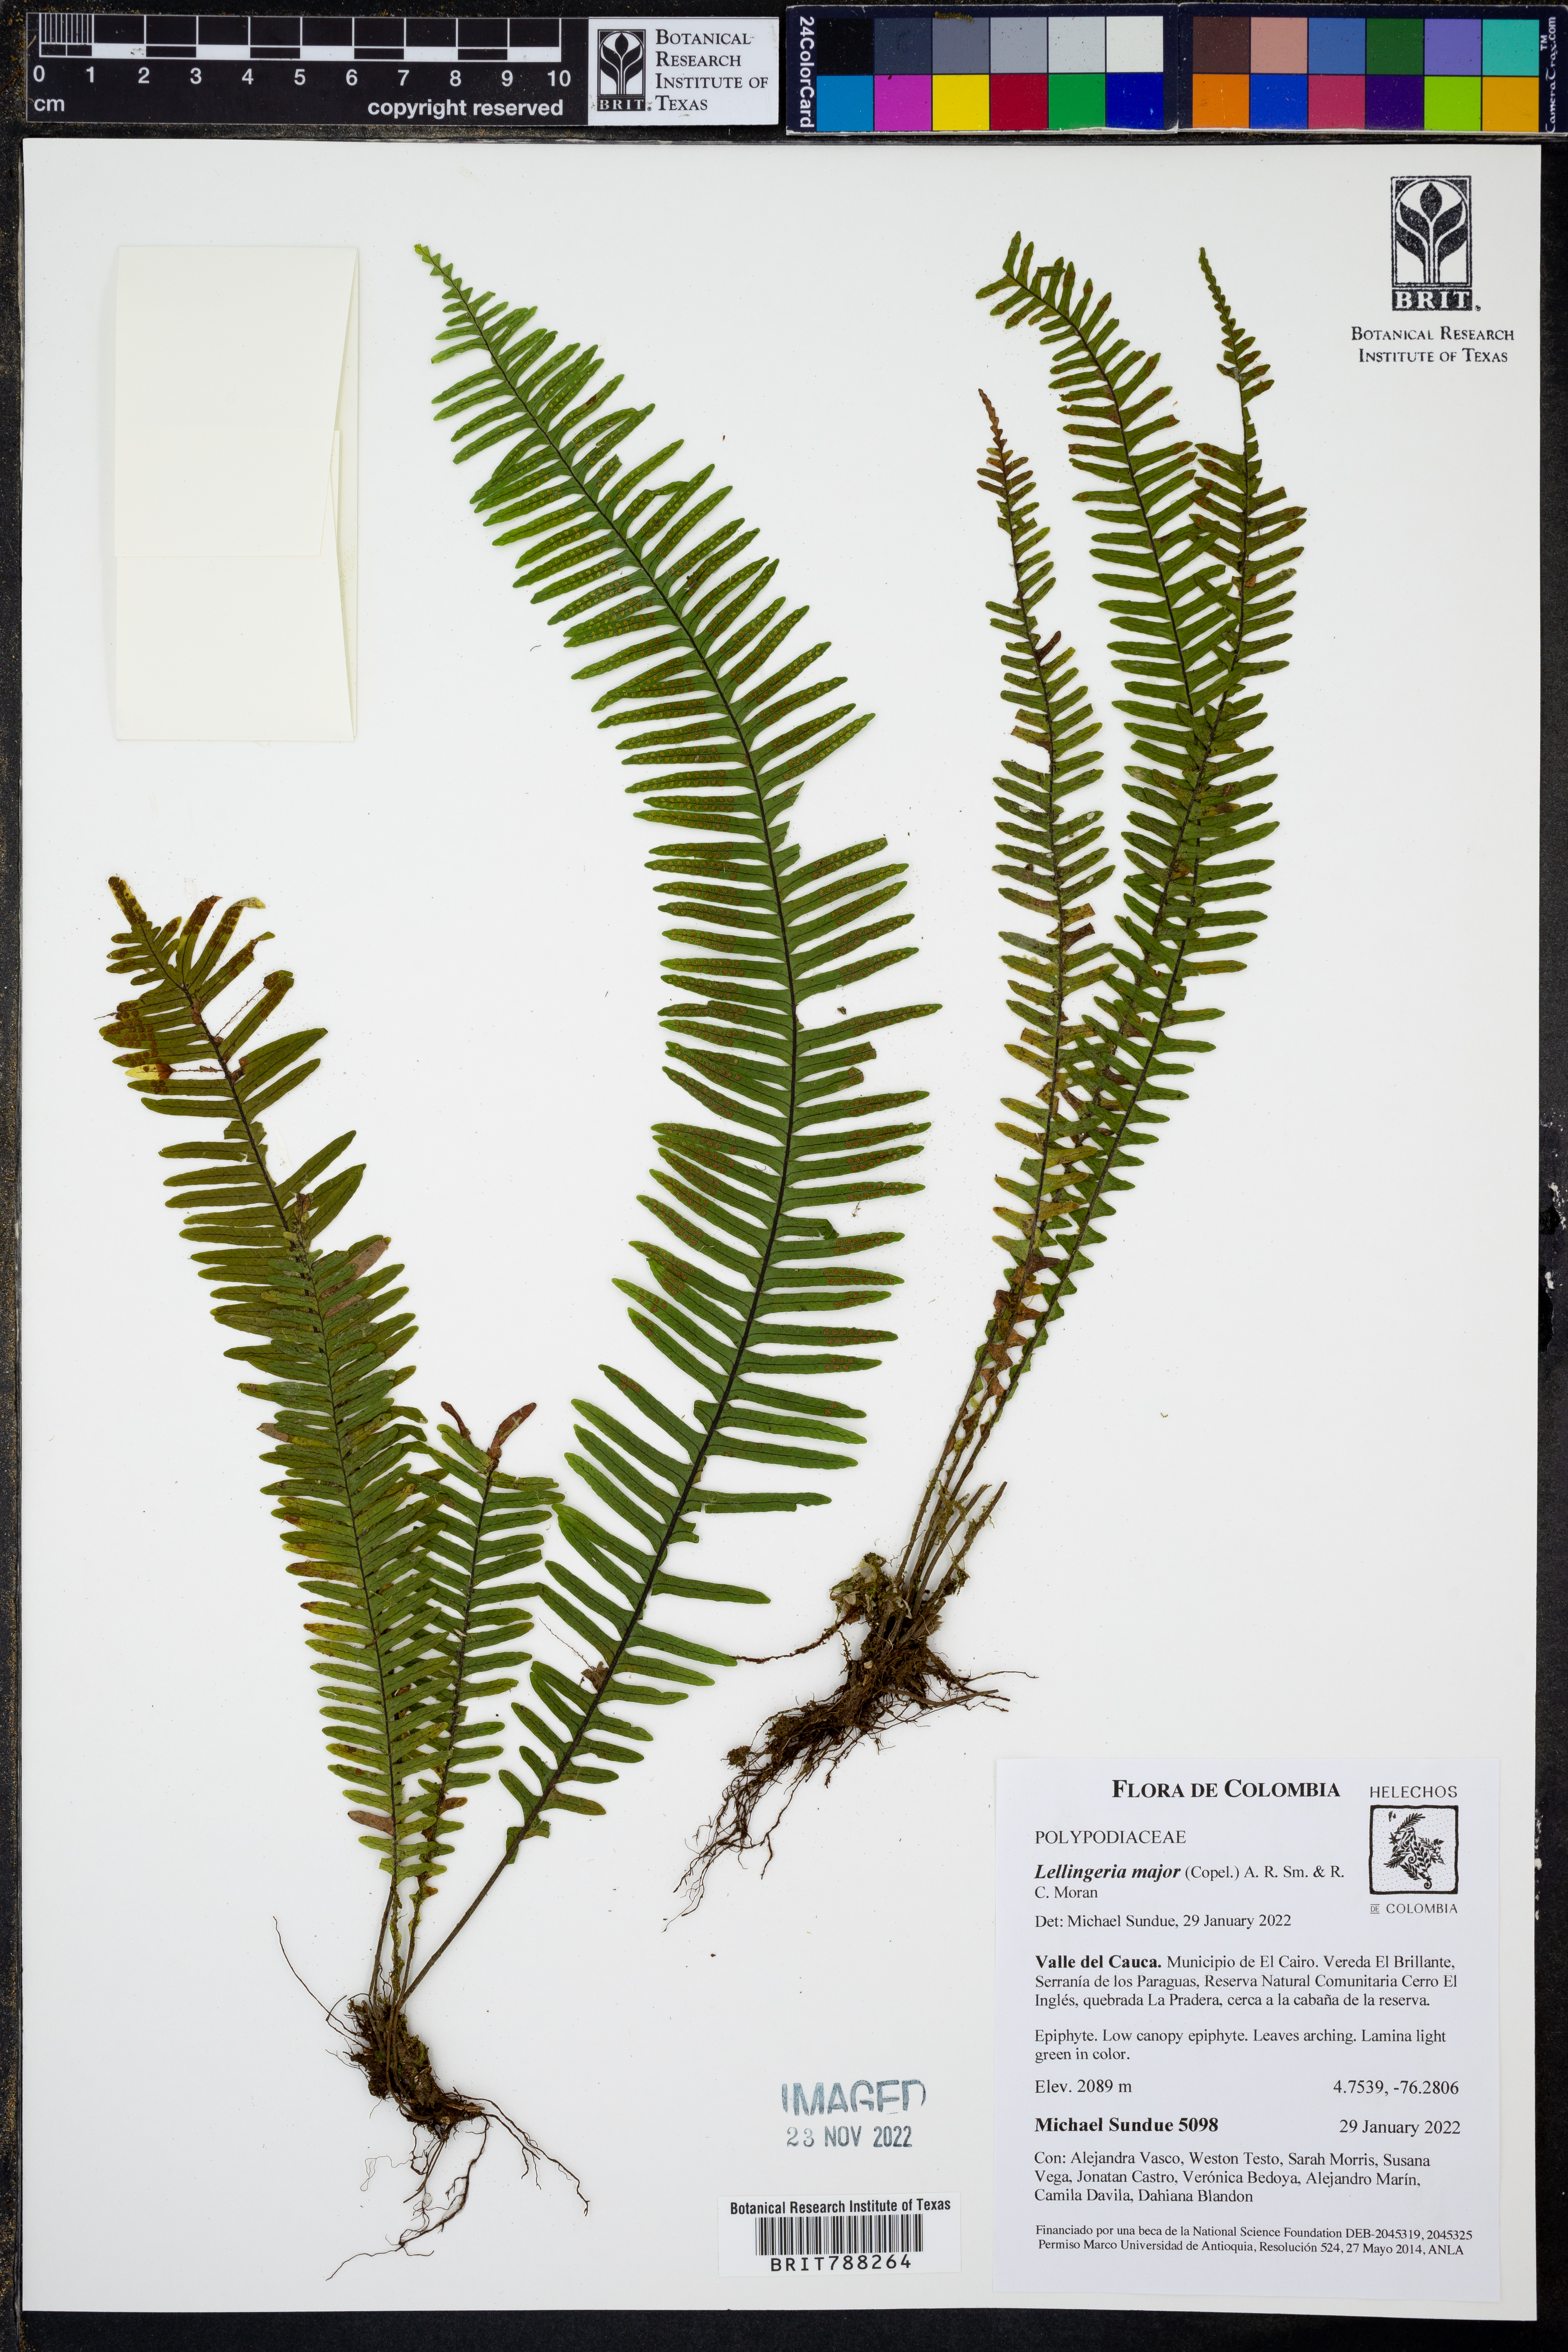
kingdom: Plantae
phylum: Tracheophyta
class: Polypodiopsida
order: Polypodiales
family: Polypodiaceae
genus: Lellingeria
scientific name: Lellingeria major
